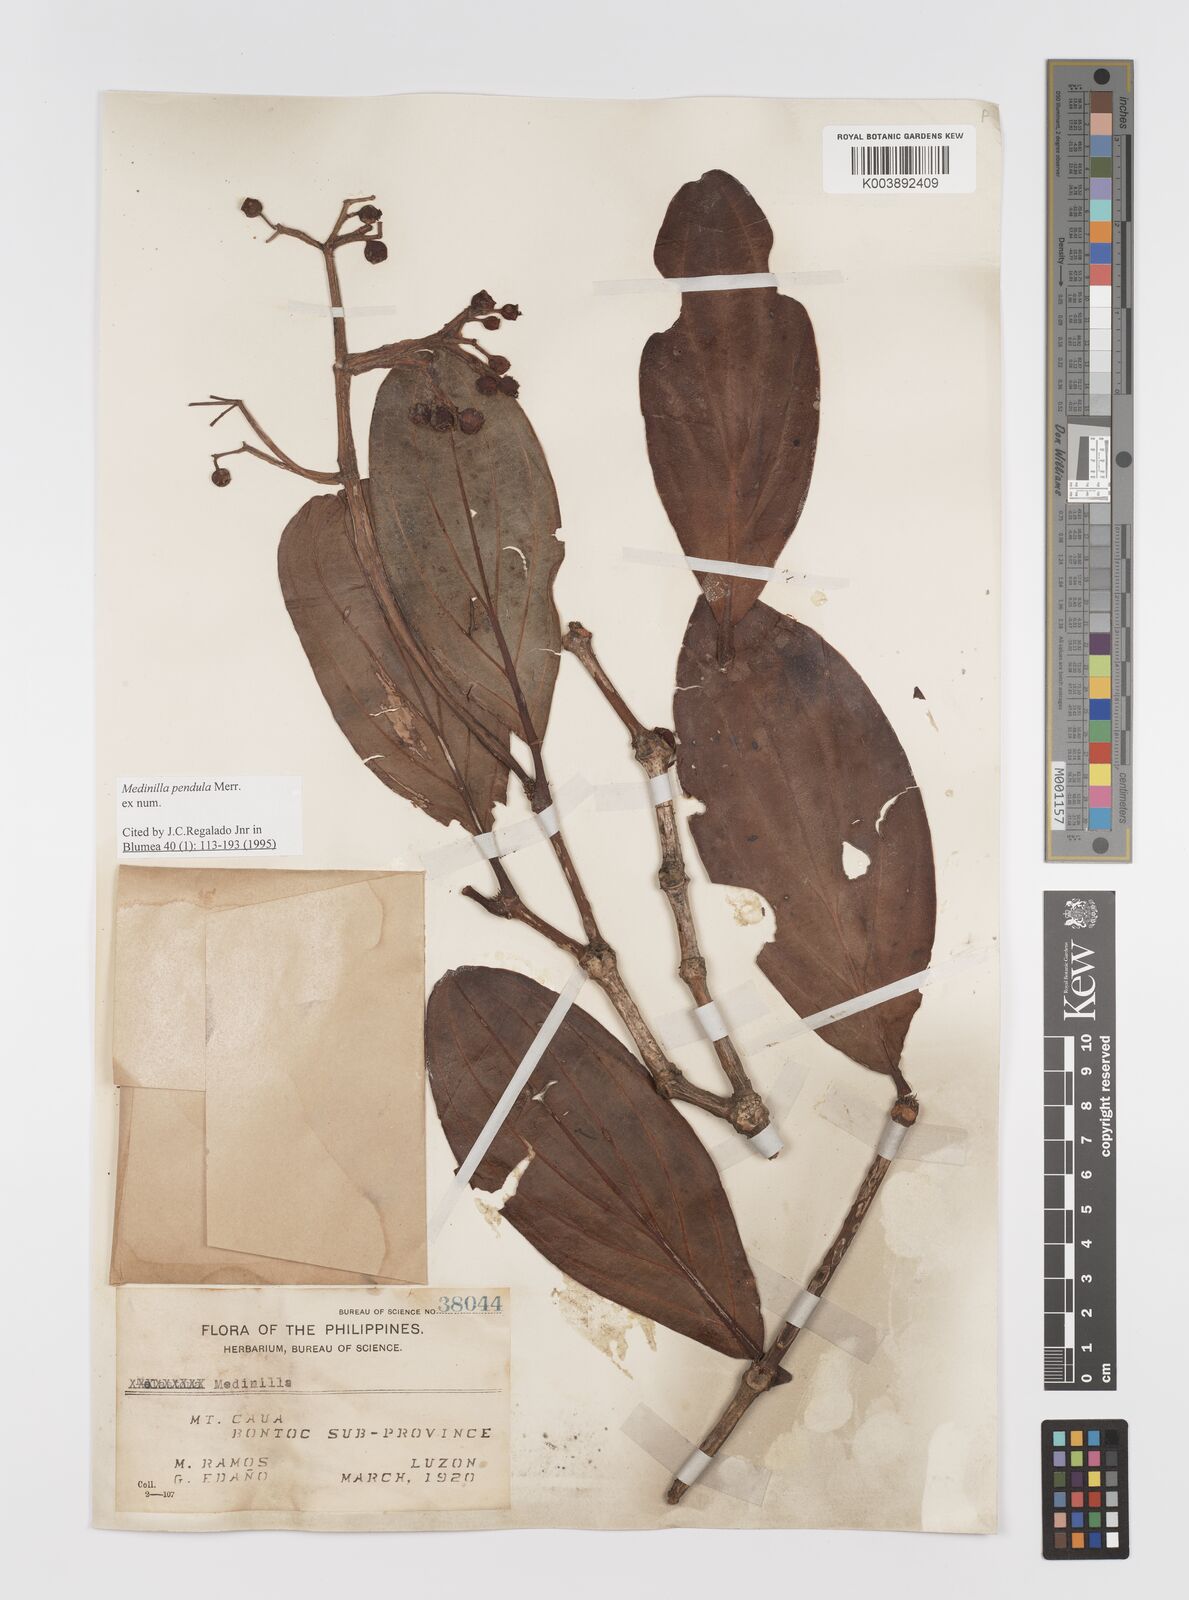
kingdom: Plantae
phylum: Tracheophyta
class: Magnoliopsida
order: Myrtales
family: Melastomataceae
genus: Medinilla
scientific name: Medinilla pendula
